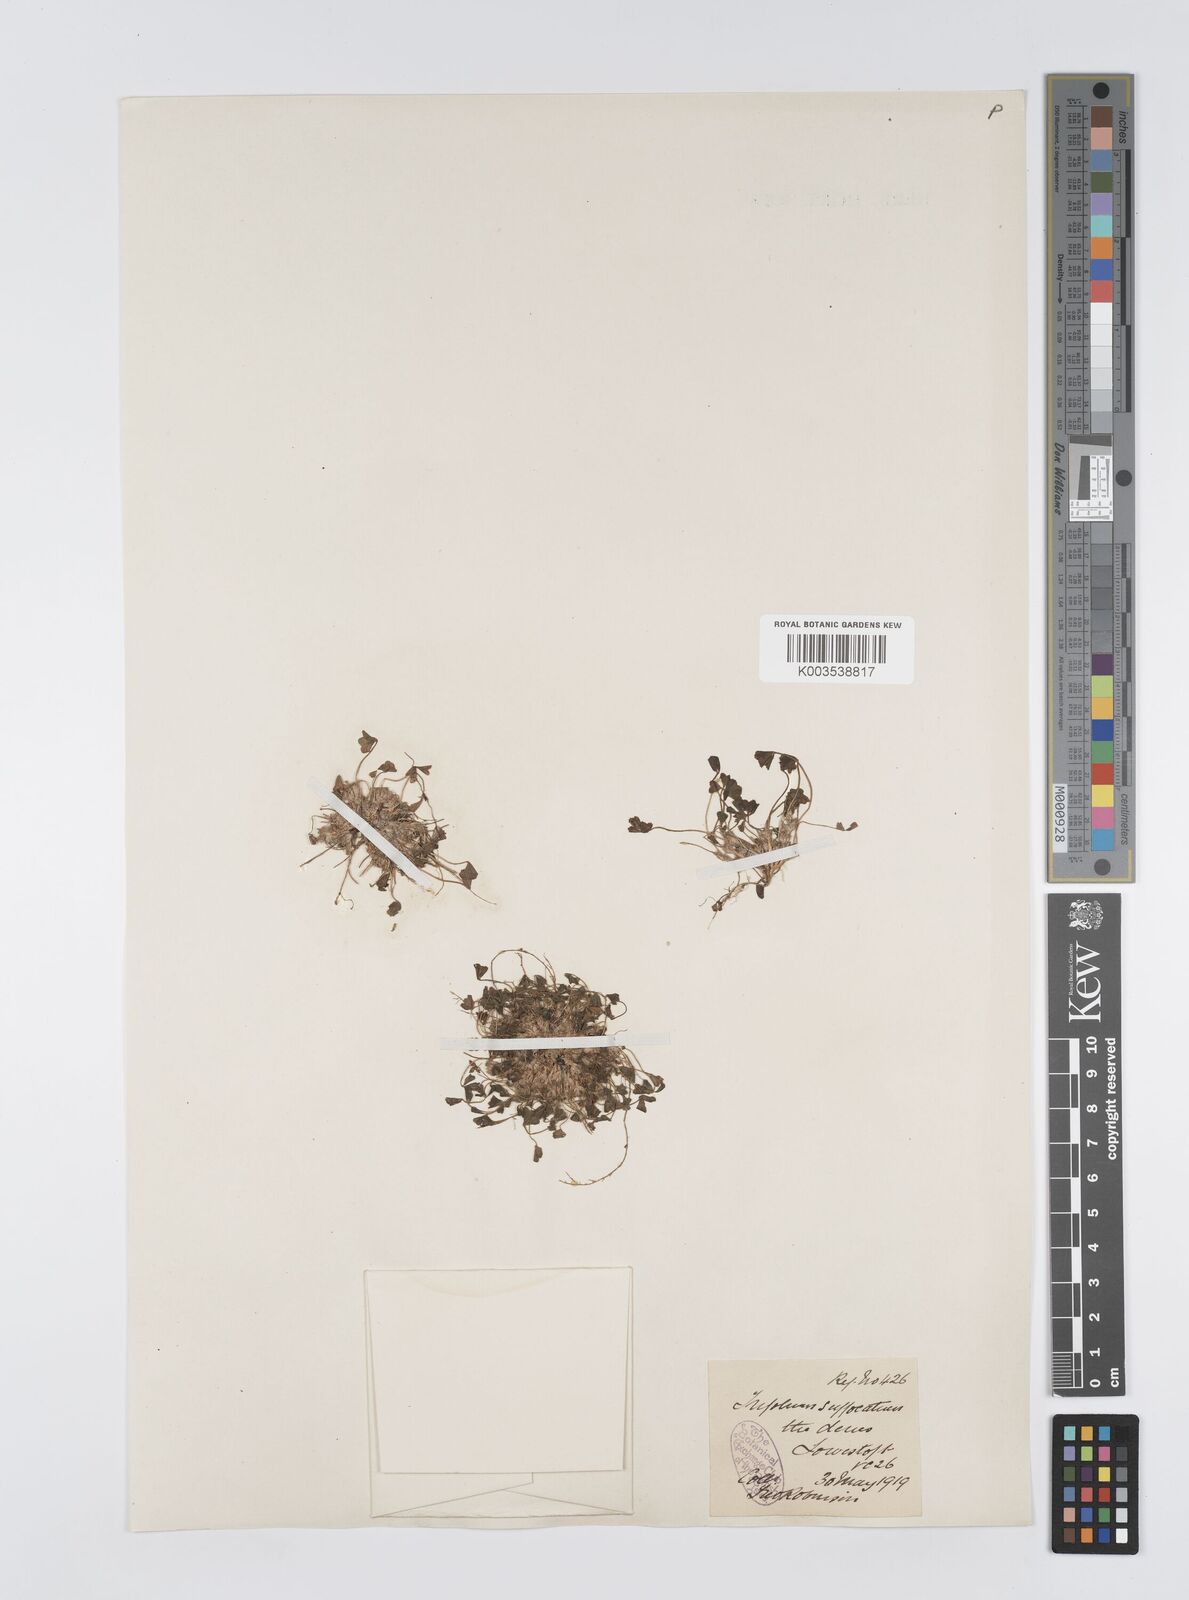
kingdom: Plantae
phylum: Tracheophyta
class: Magnoliopsida
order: Fabales
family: Fabaceae
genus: Trifolium
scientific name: Trifolium suffocatum
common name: Suffocated clover
